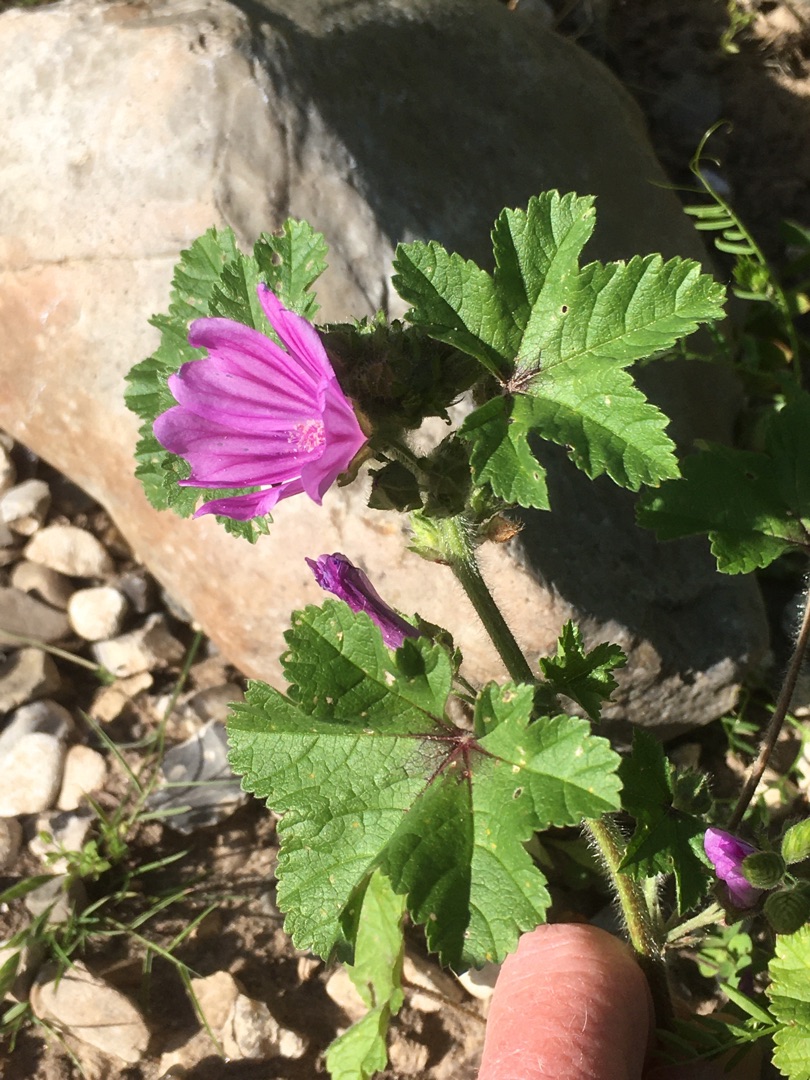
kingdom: Plantae
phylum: Tracheophyta
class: Magnoliopsida
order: Malvales
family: Malvaceae
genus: Malva
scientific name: Malva sylvestris
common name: Almindelig katost
